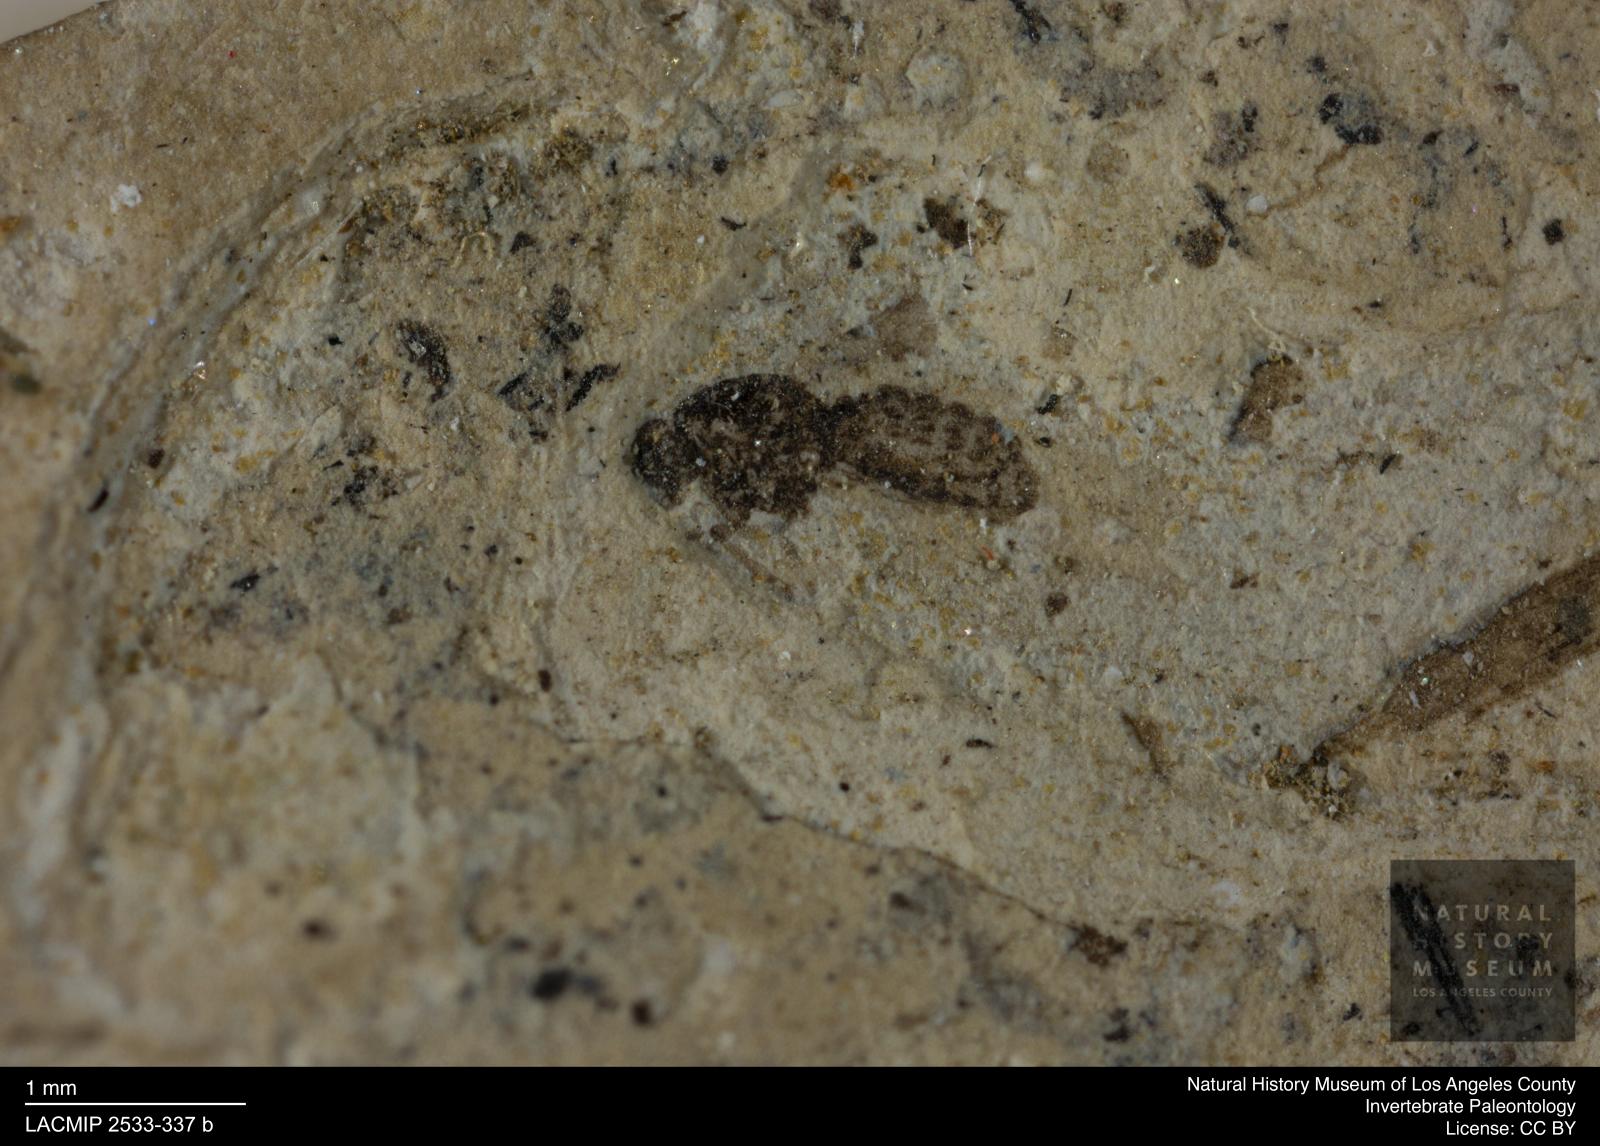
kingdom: Animalia
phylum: Arthropoda
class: Insecta
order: Diptera
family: Ceratopogonidae
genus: Culicoides
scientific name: Culicoides abbreviatipennis
